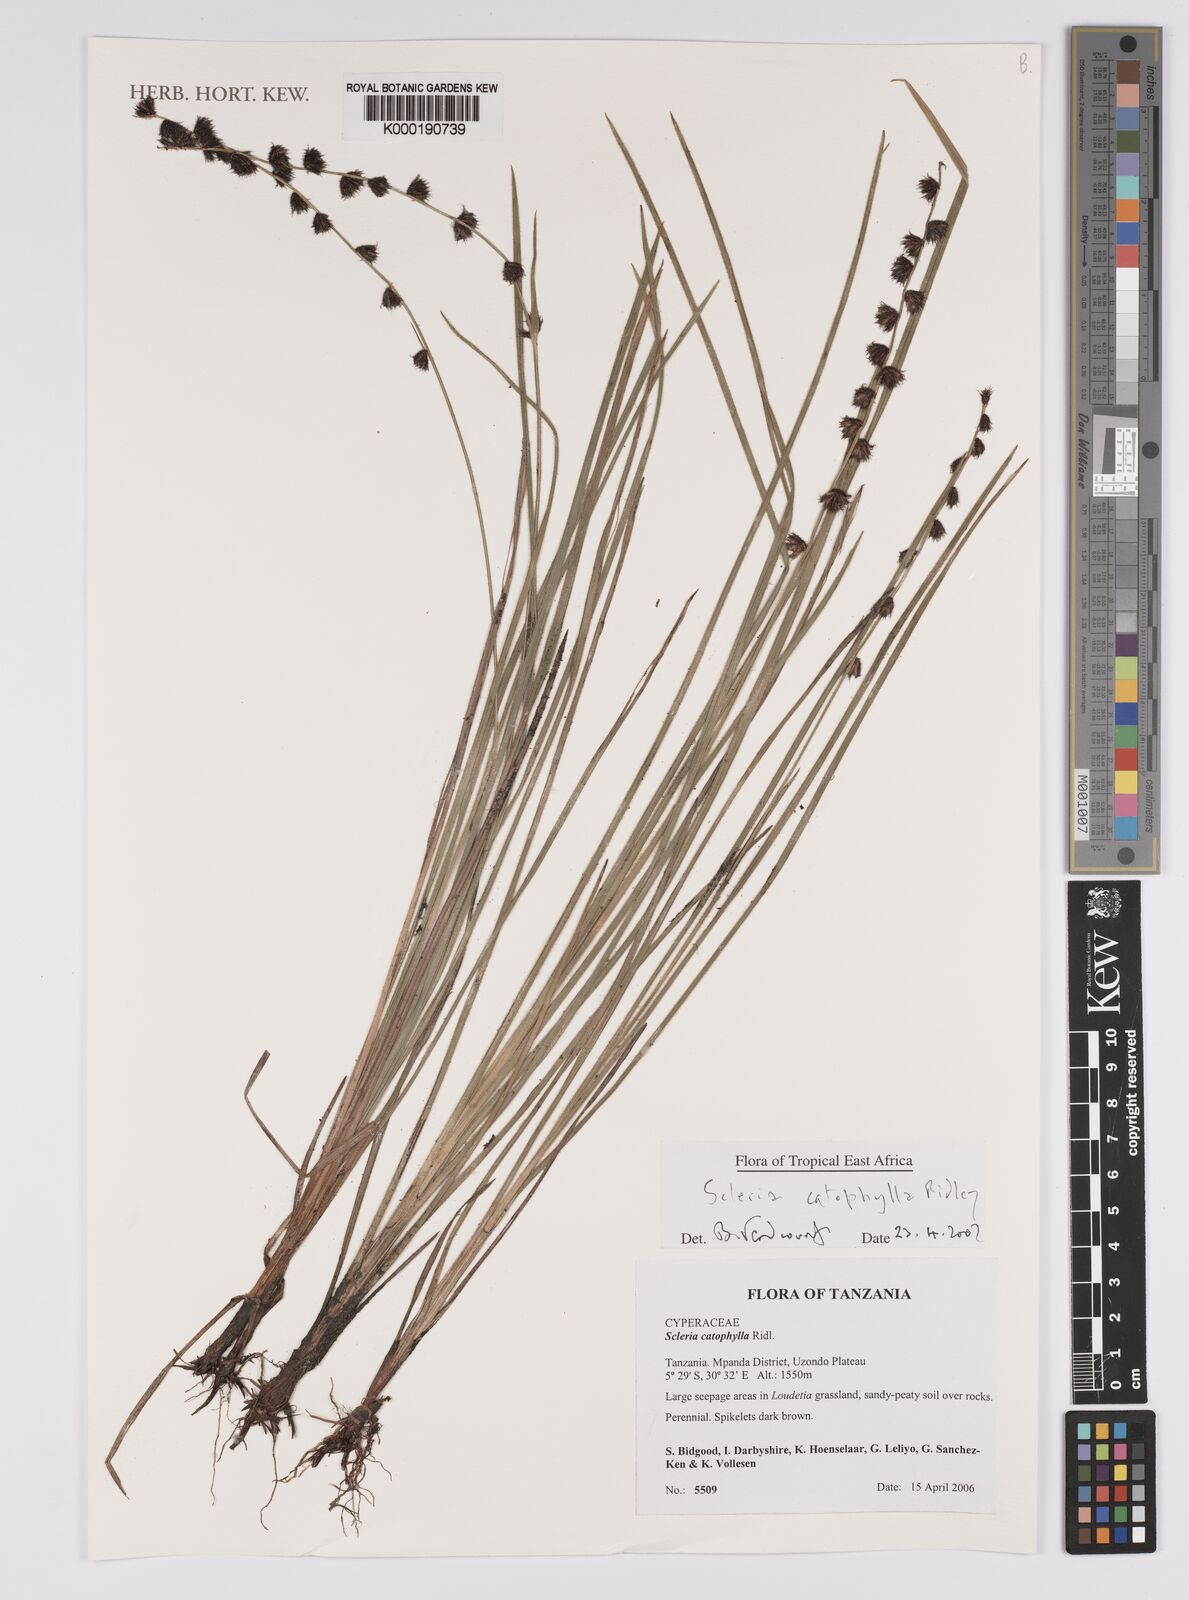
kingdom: Plantae
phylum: Tracheophyta
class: Liliopsida
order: Poales
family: Cyperaceae
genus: Scleria
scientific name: Scleria
